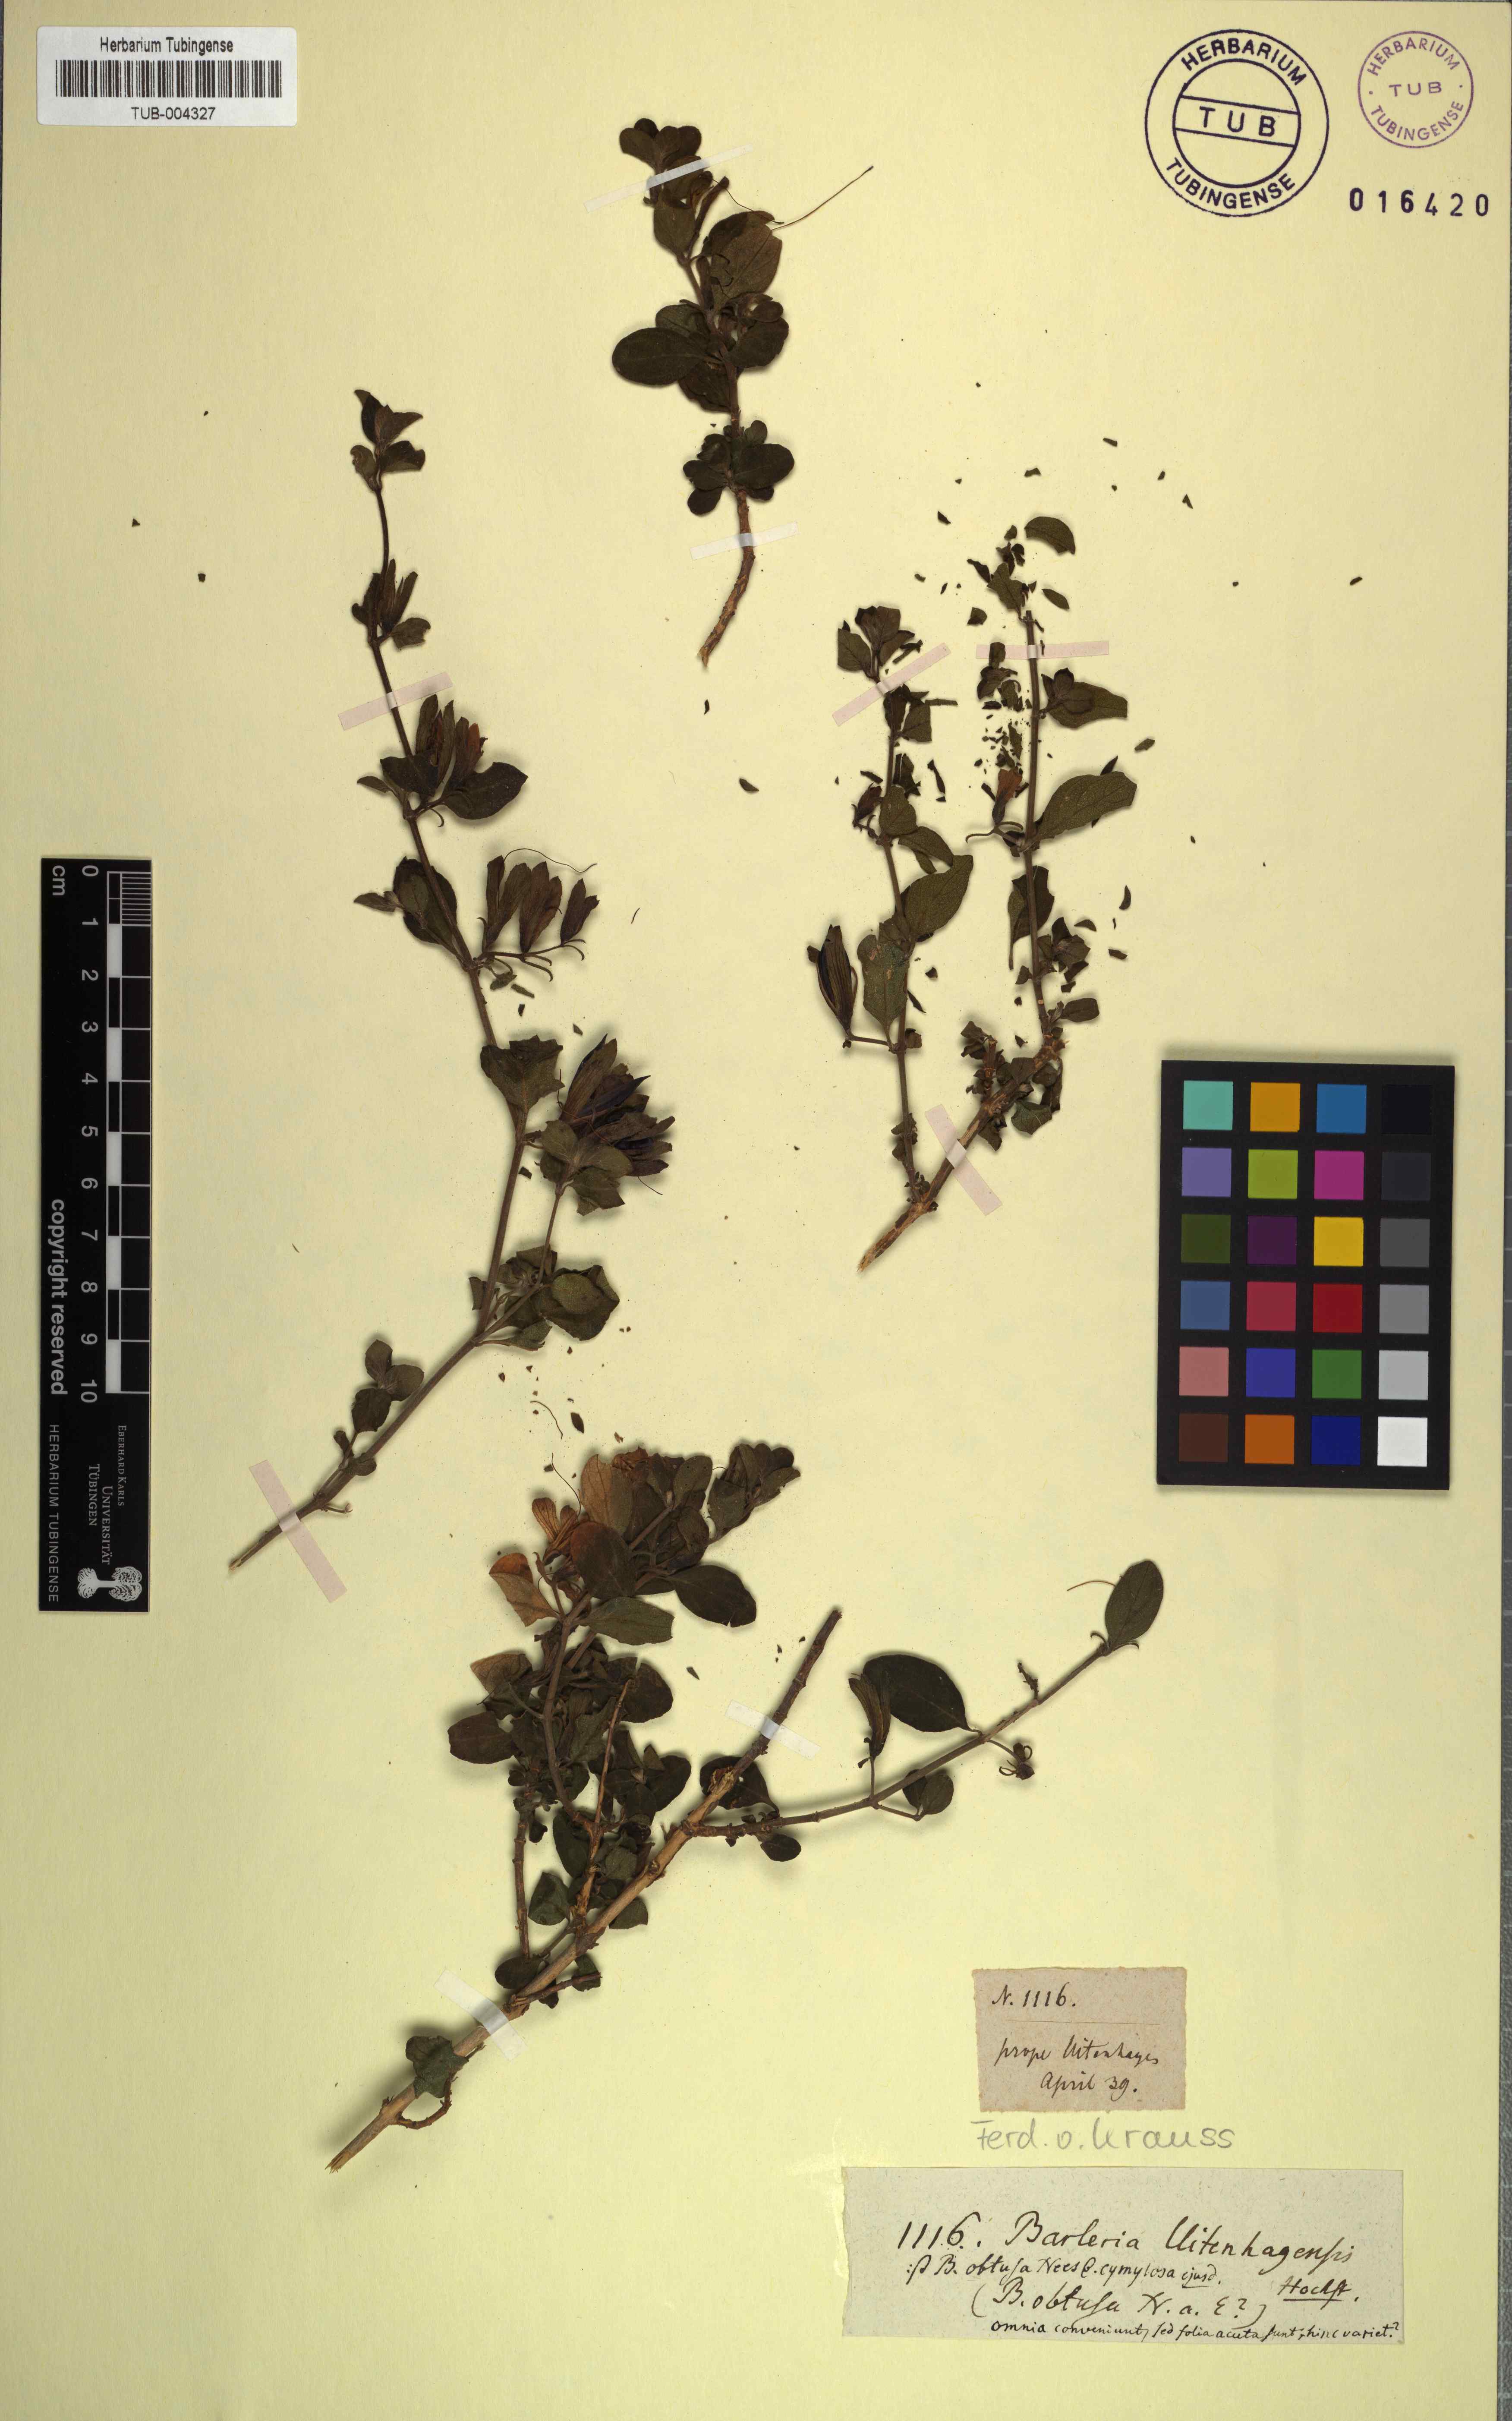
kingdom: Plantae
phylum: Tracheophyta
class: Magnoliopsida
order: Lamiales
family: Acanthaceae
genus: Barleria
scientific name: Barleria obtusa
